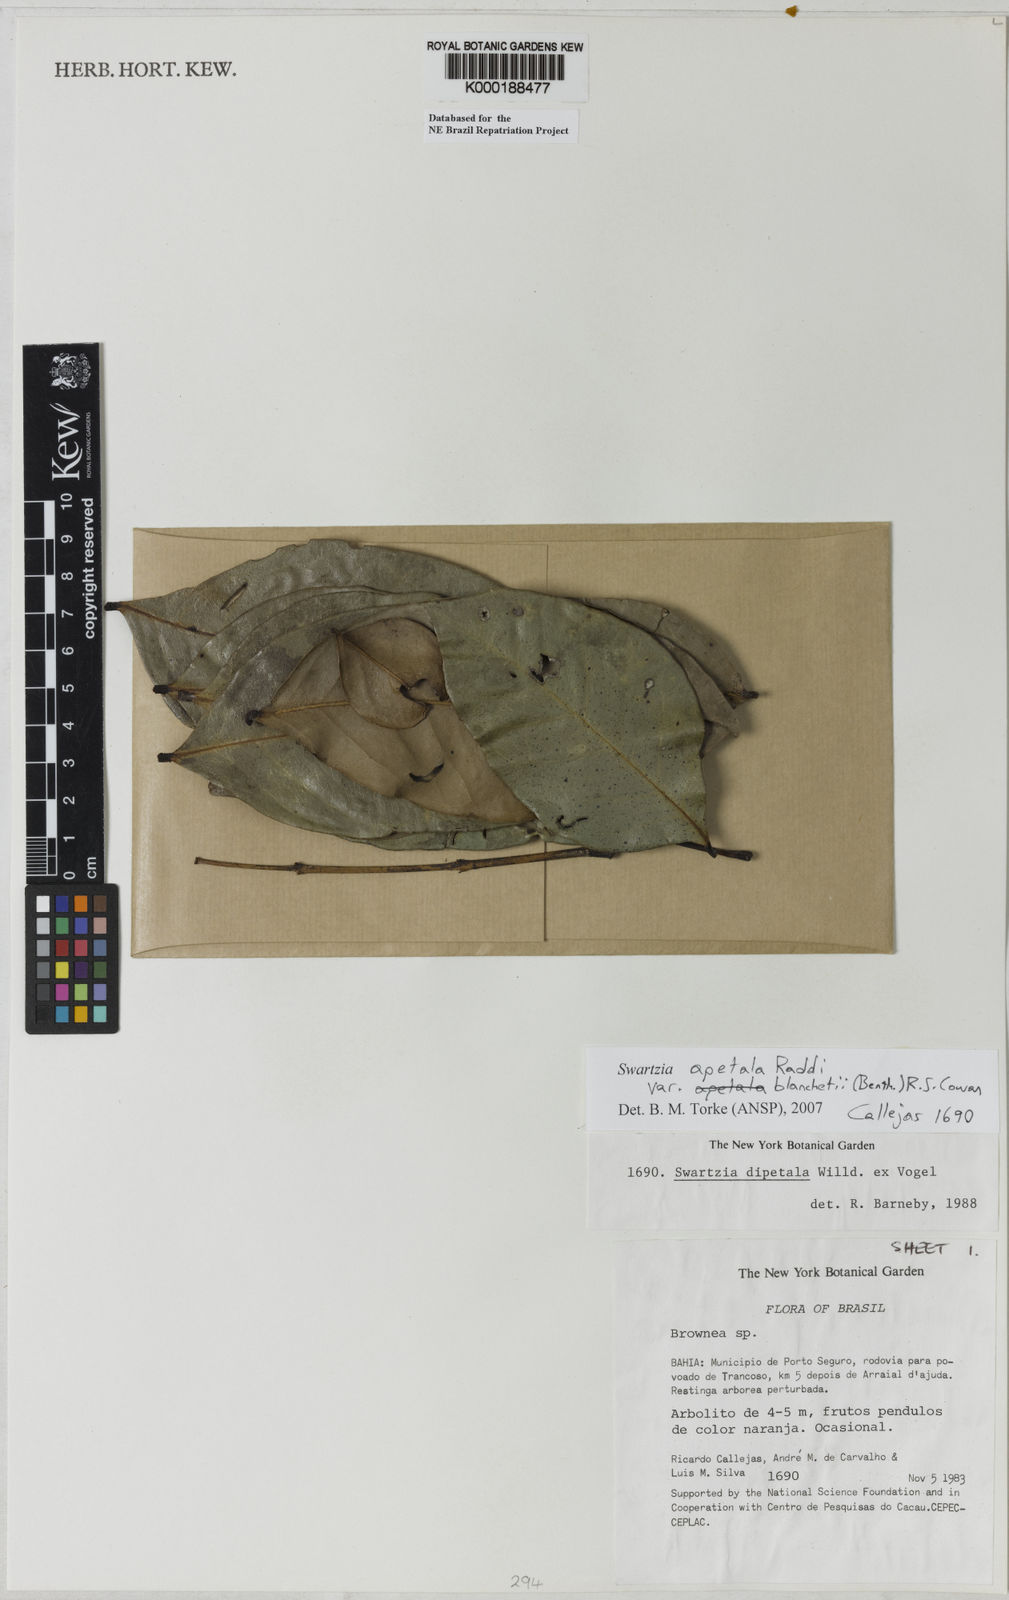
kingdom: Plantae
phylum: Tracheophyta
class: Magnoliopsida
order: Fabales
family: Fabaceae
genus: Swartzia
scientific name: Swartzia dipetala
